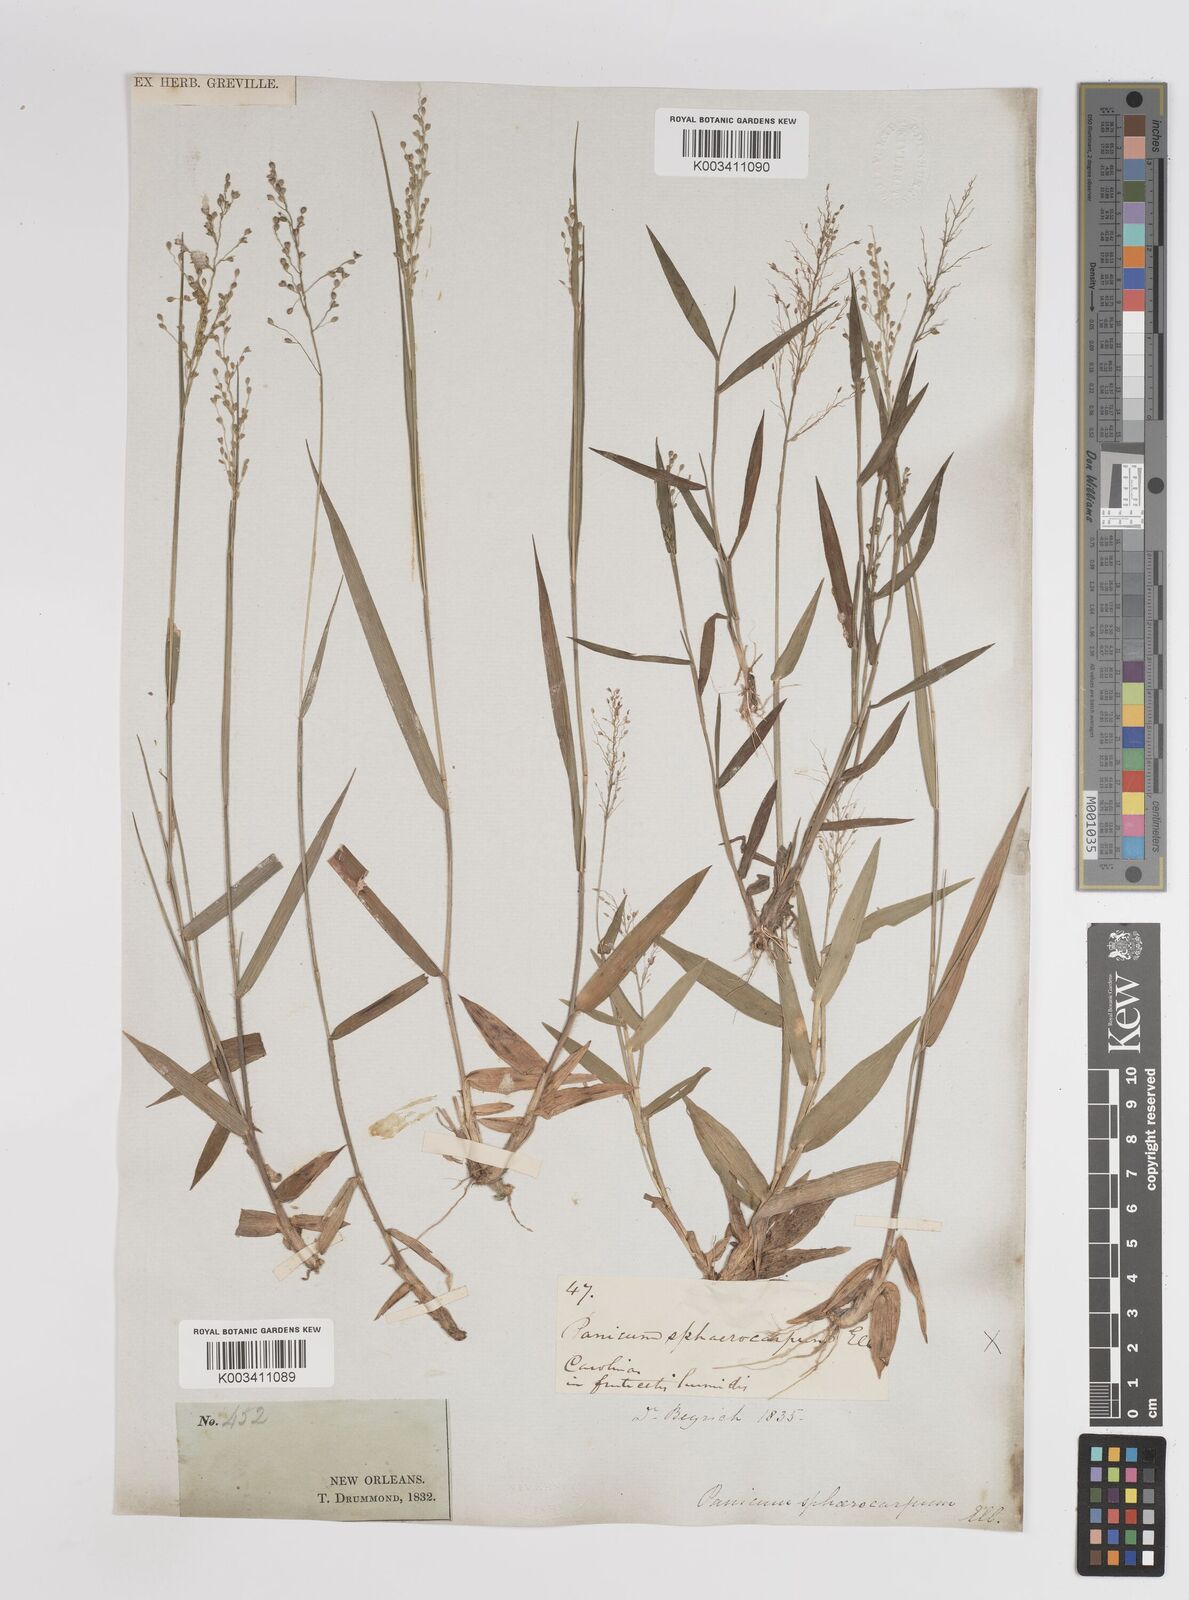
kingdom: Plantae
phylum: Tracheophyta
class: Liliopsida
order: Poales
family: Poaceae
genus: Dichanthelium
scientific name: Dichanthelium sphaerocarpon
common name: Round-fruited panicgrass
